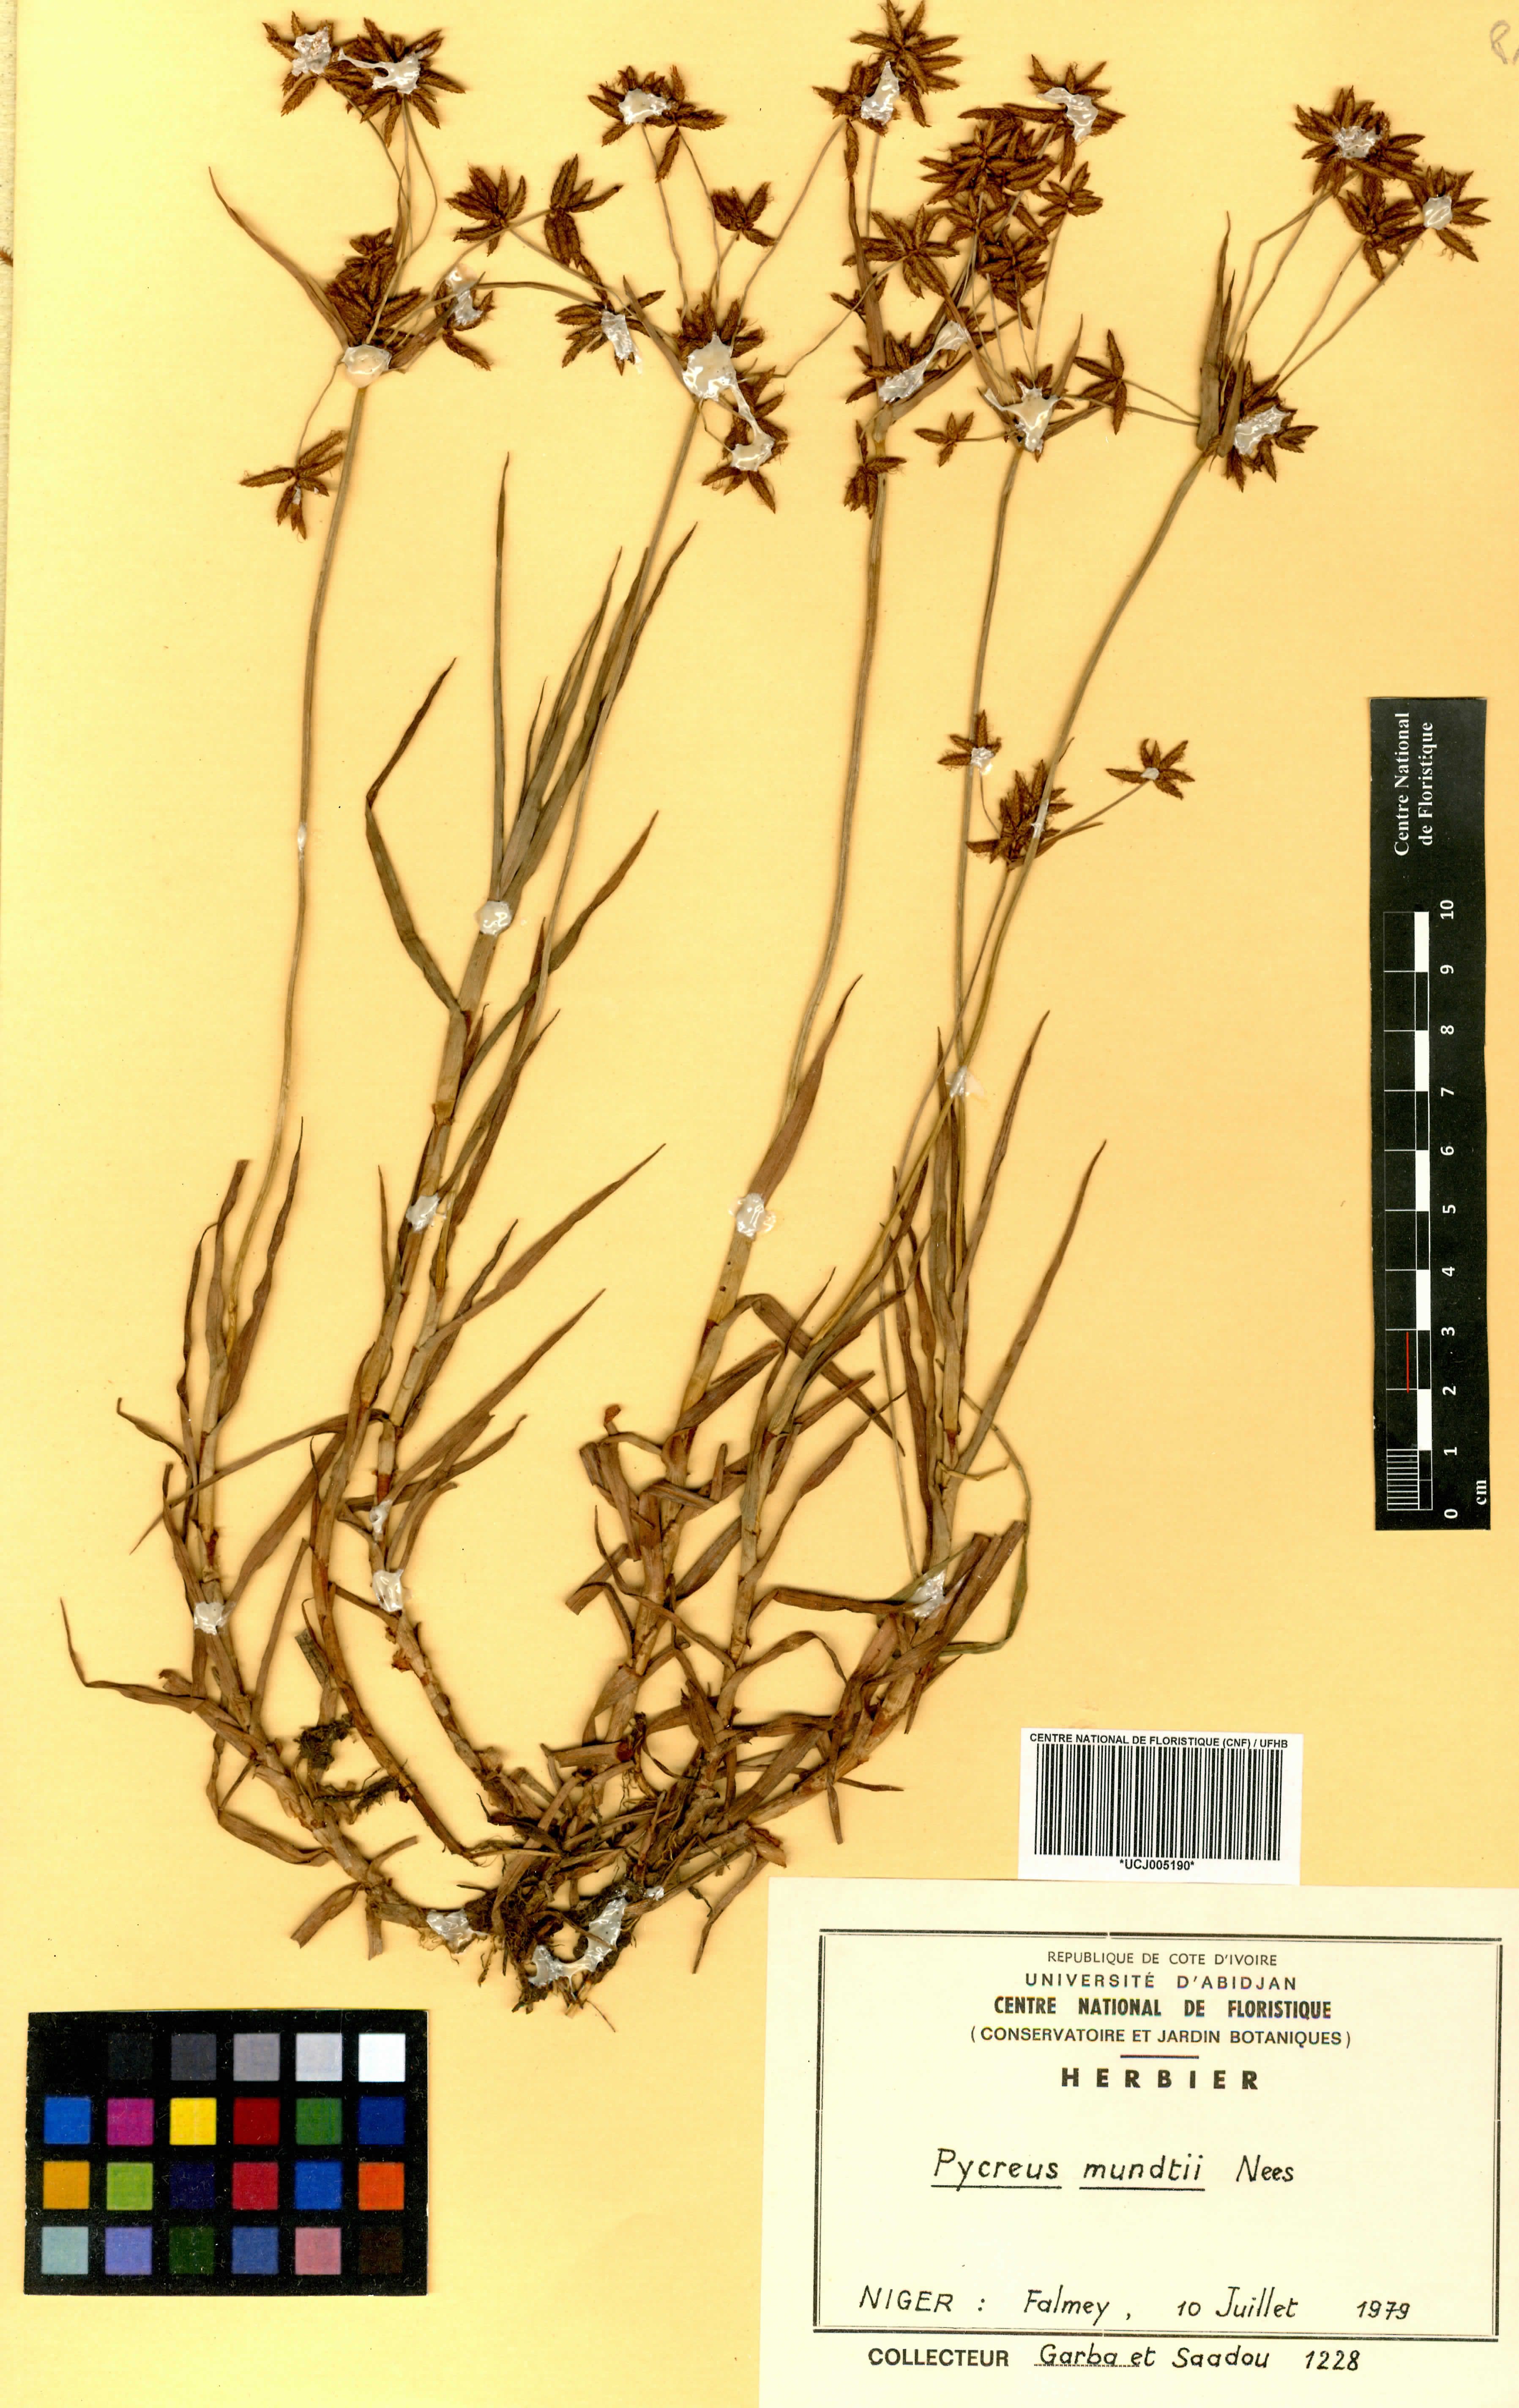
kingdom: Plantae
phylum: Tracheophyta
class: Liliopsida
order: Poales
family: Cyperaceae
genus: Cyperus
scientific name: Cyperus mundii
